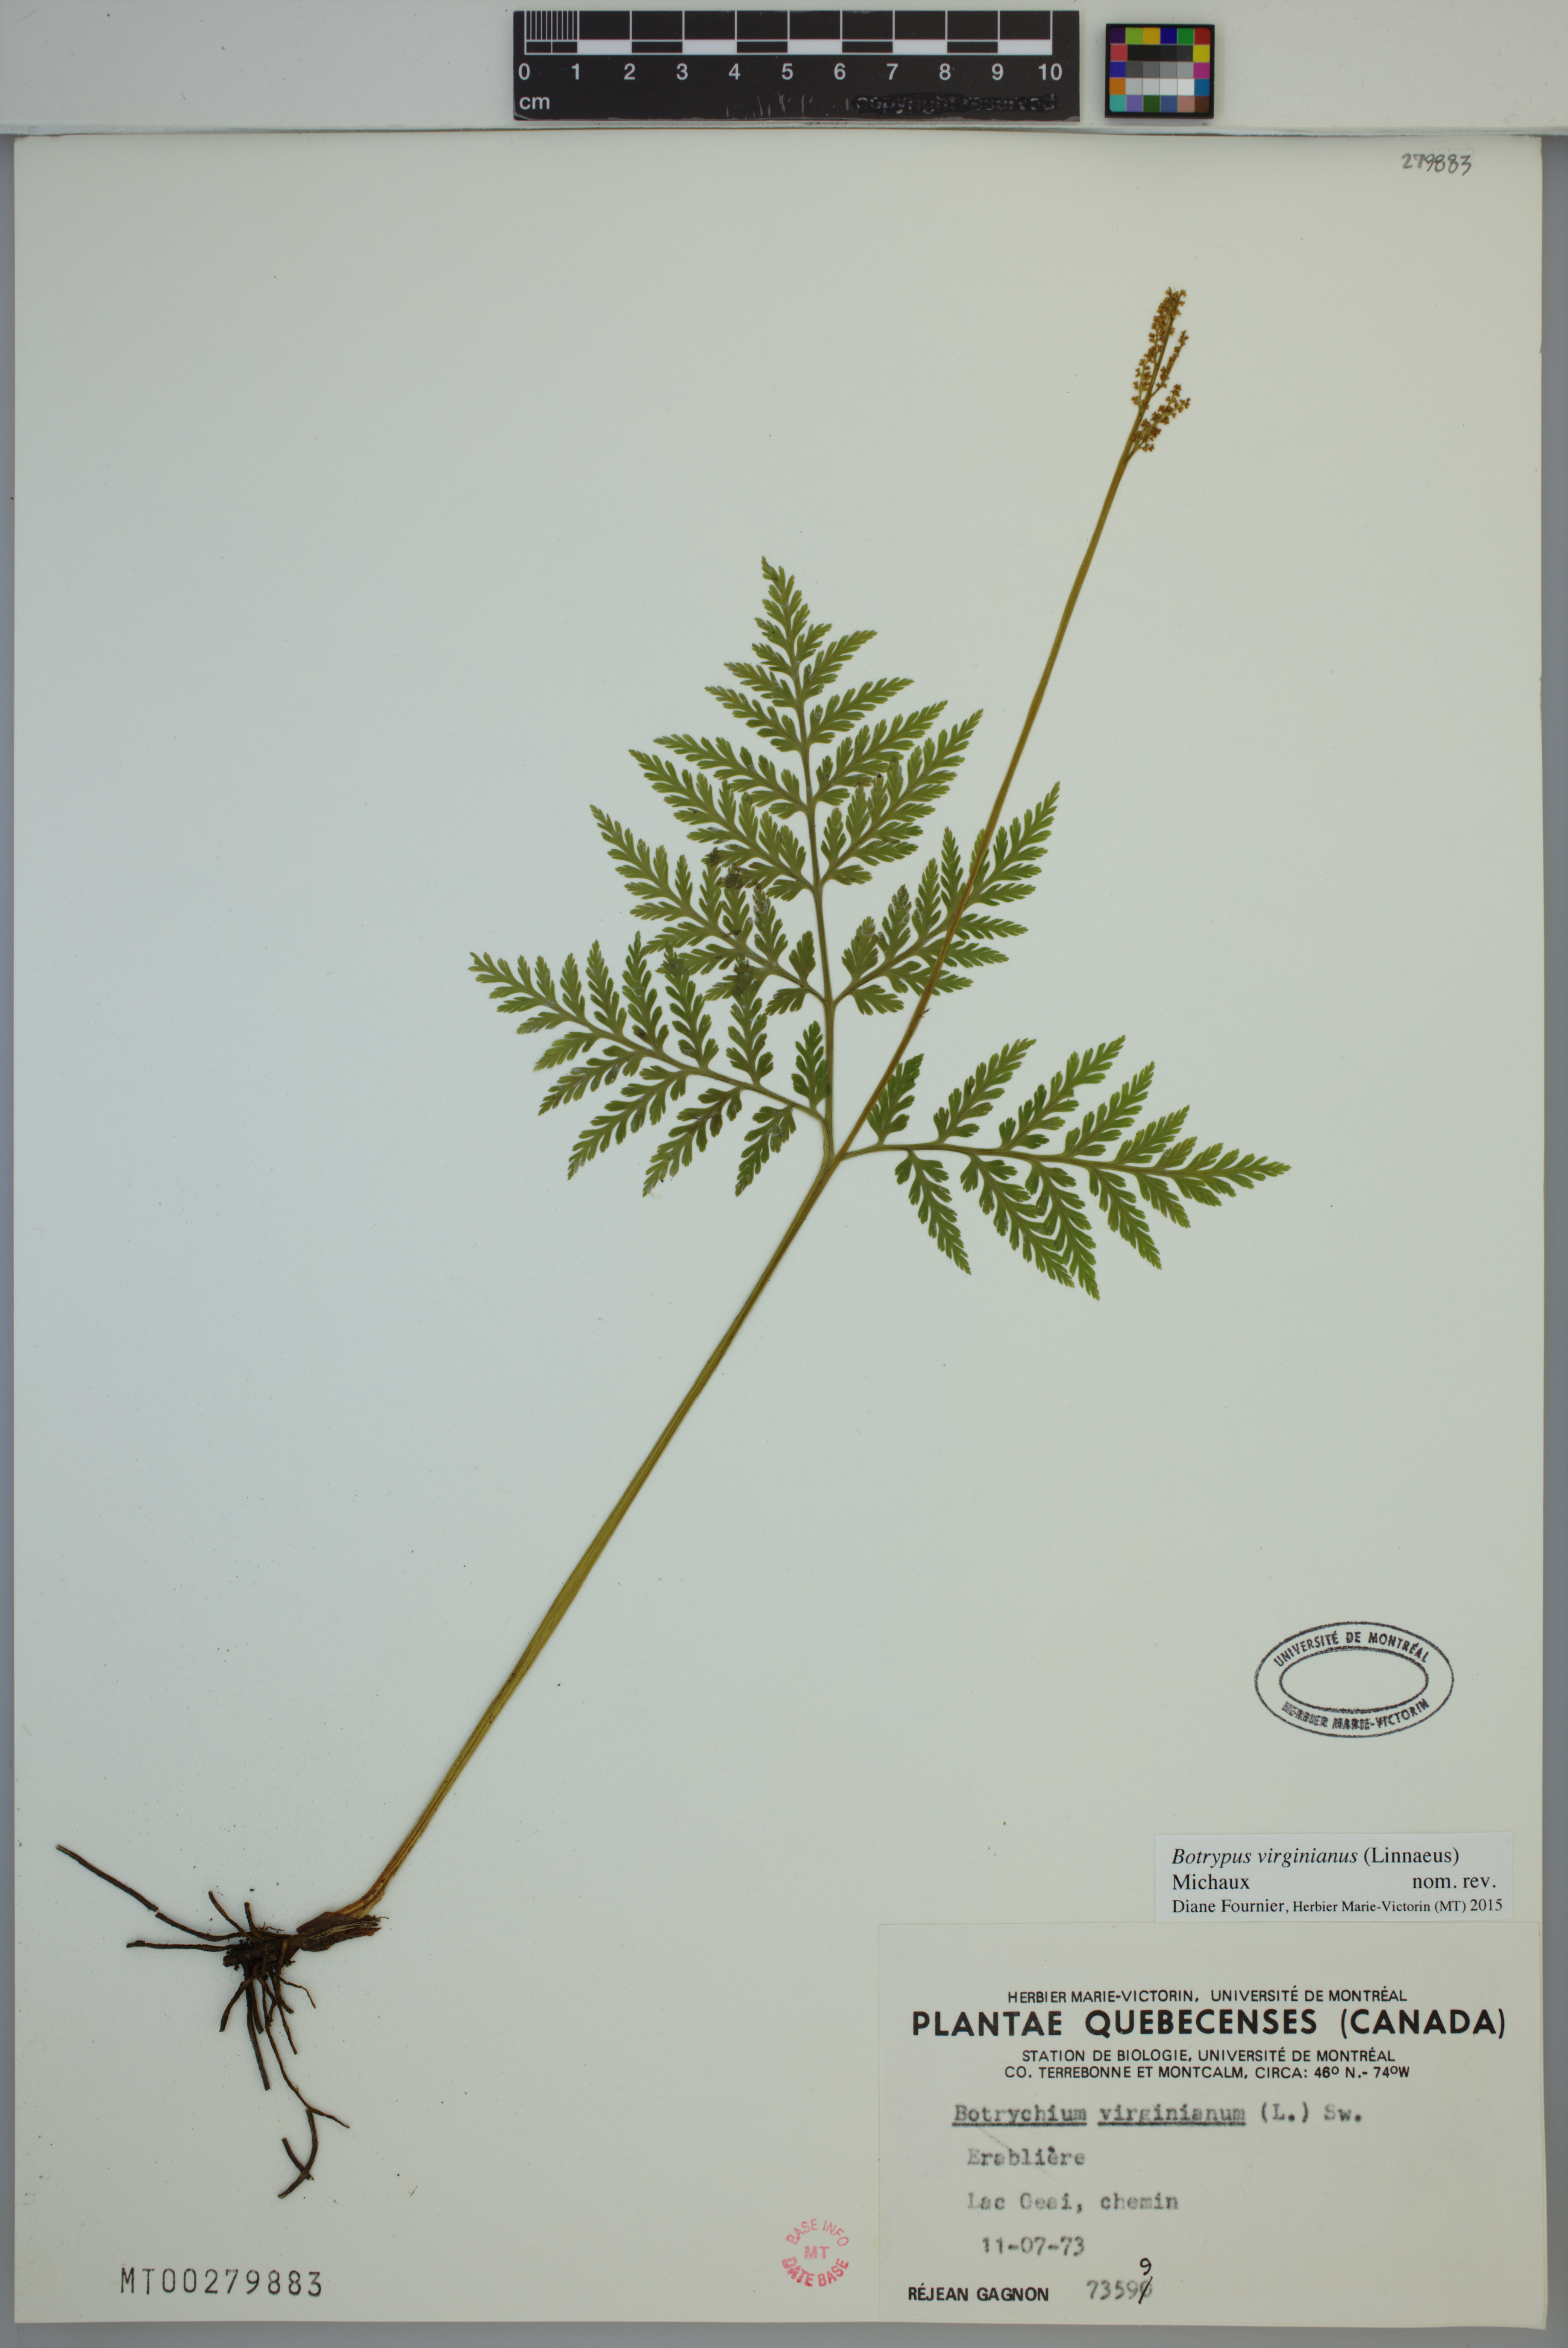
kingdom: Plantae
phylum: Tracheophyta
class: Polypodiopsida
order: Ophioglossales
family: Ophioglossaceae
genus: Botrypus
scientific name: Botrypus virginianus
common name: Common grapefern
